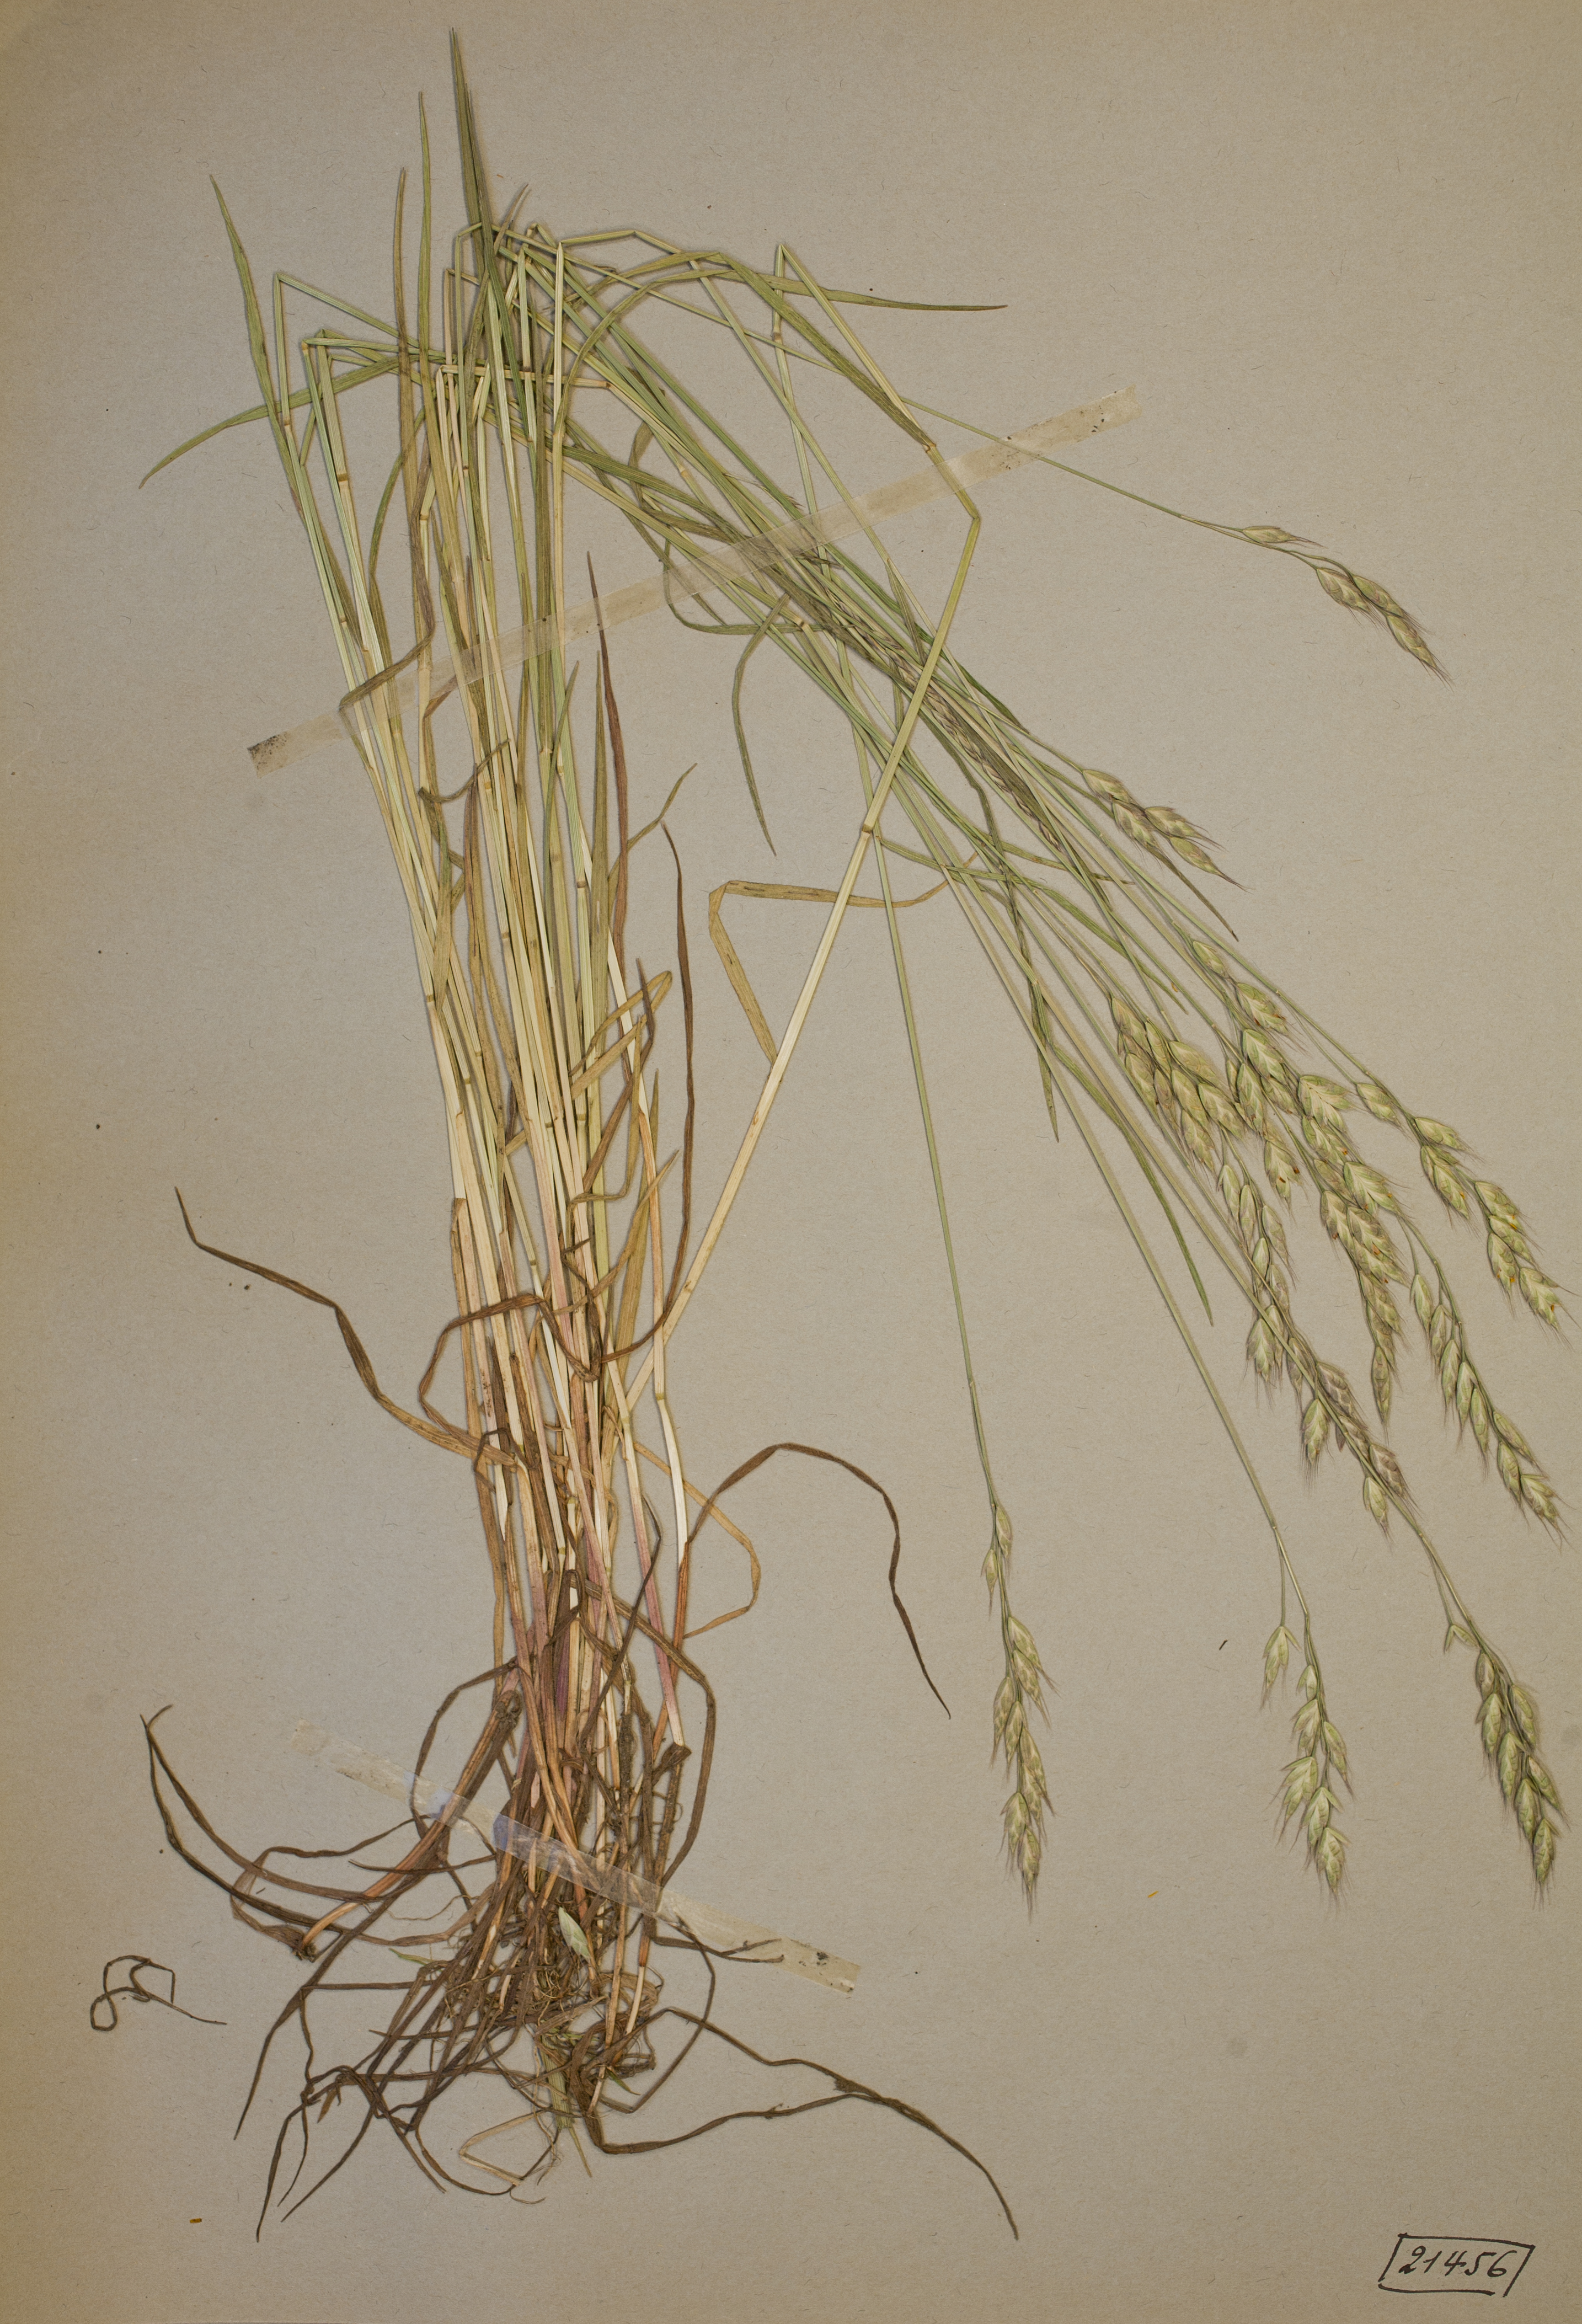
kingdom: Plantae
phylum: Tracheophyta
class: Liliopsida
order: Poales
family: Poaceae
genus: Bromus
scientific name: Bromus racemosus
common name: Bald brome
